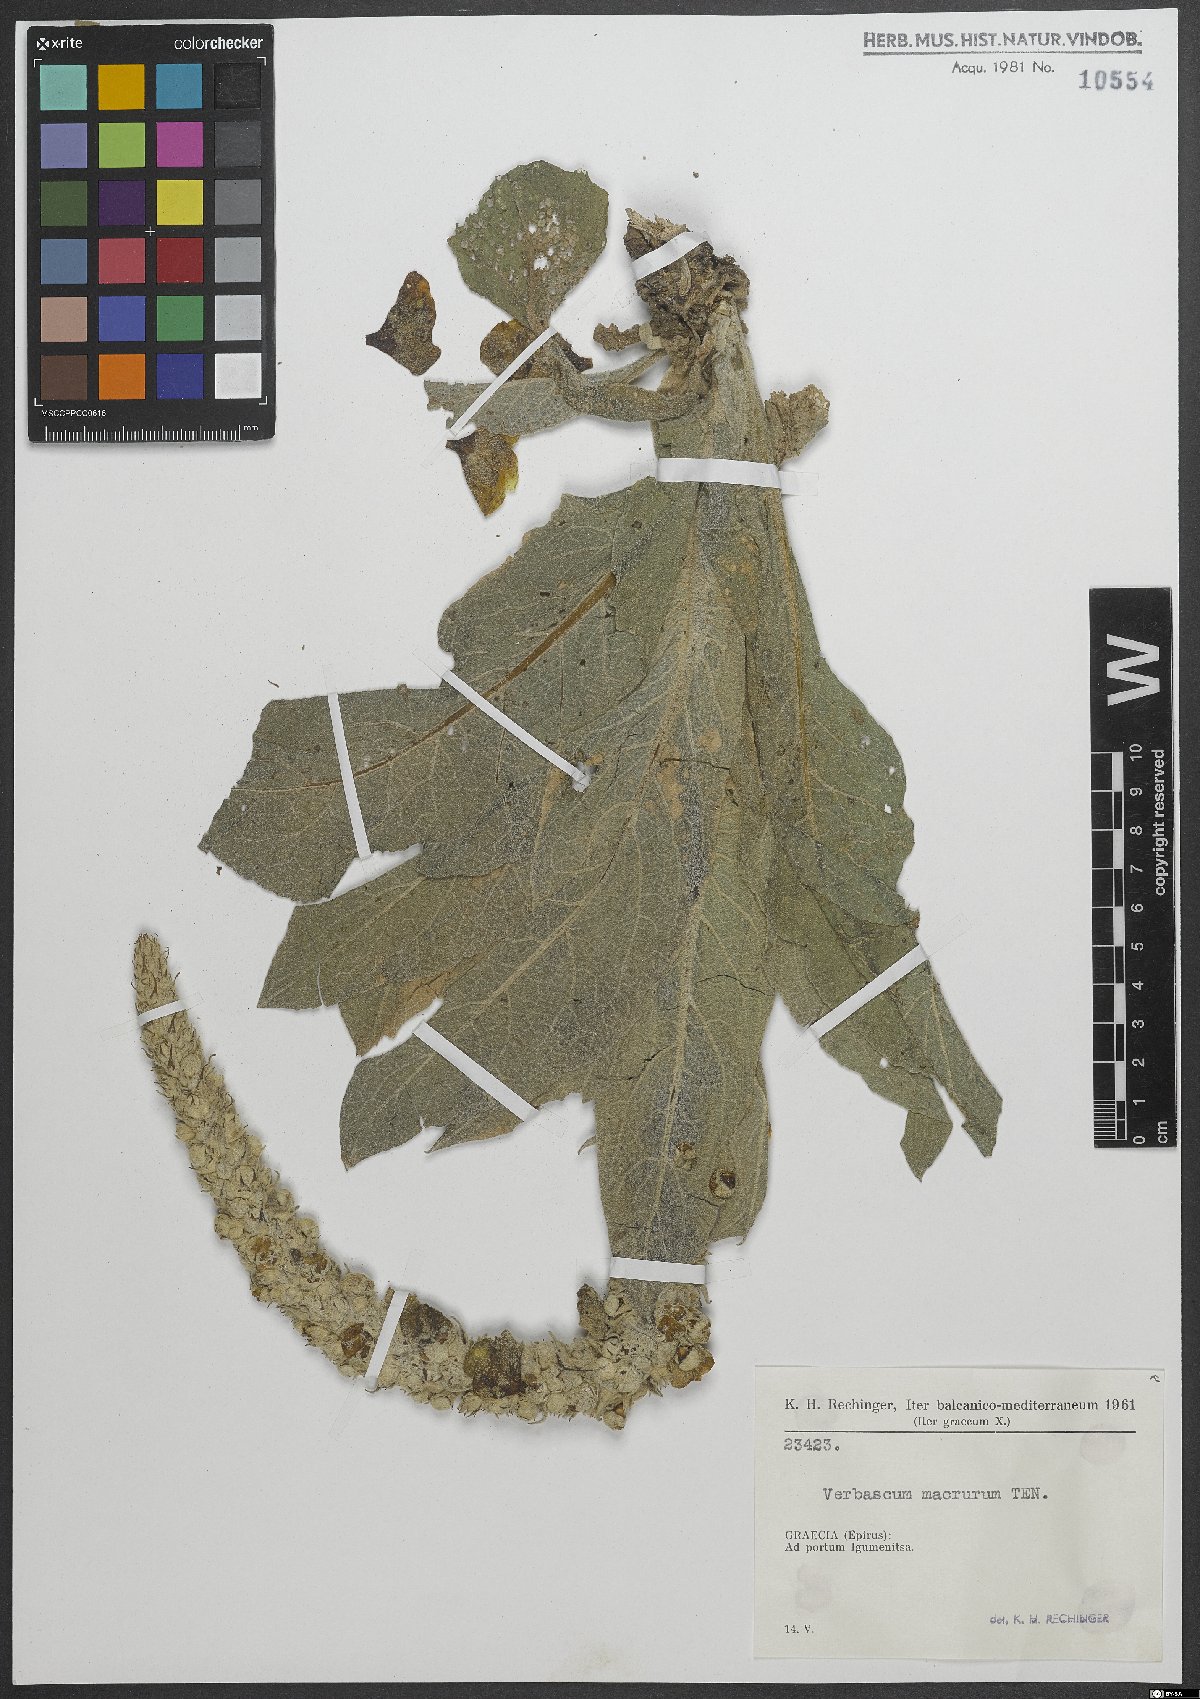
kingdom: Plantae
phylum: Tracheophyta
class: Magnoliopsida
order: Lamiales
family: Scrophulariaceae
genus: Verbascum
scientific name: Verbascum macrurum
